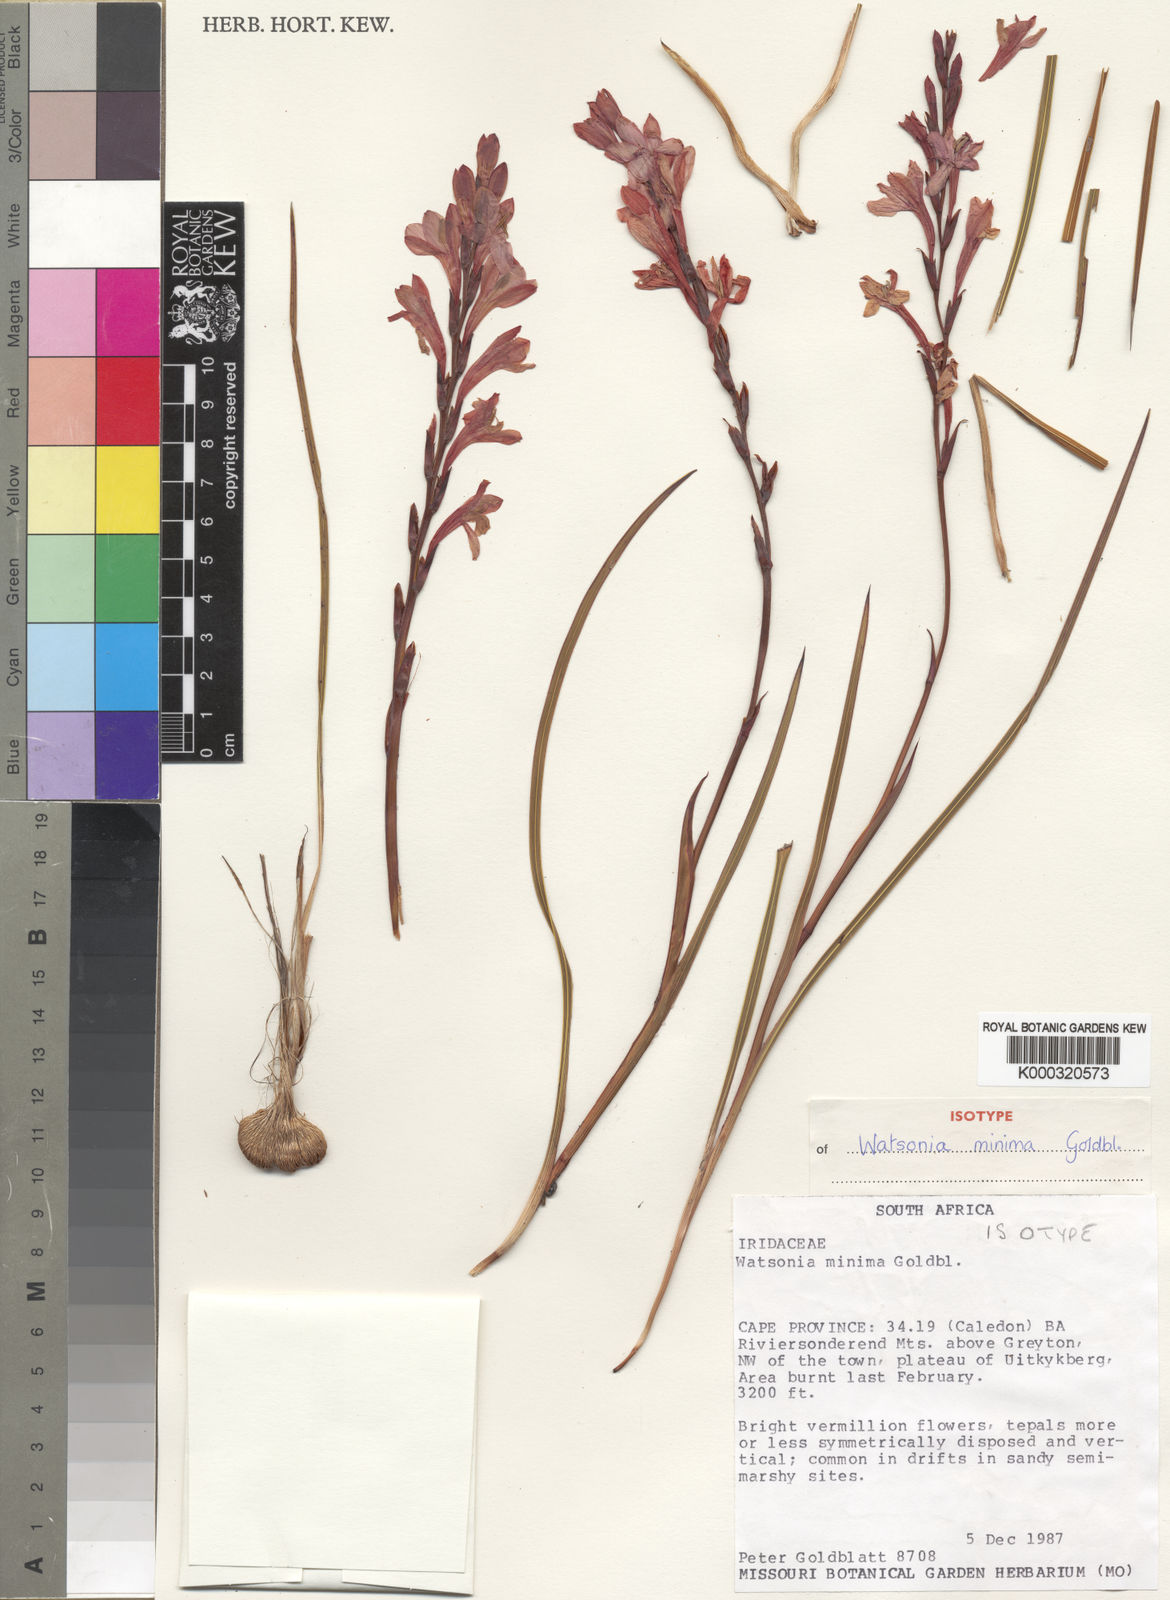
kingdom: Plantae
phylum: Tracheophyta
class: Liliopsida
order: Asparagales
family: Iridaceae
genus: Watsonia
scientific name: Watsonia minima
